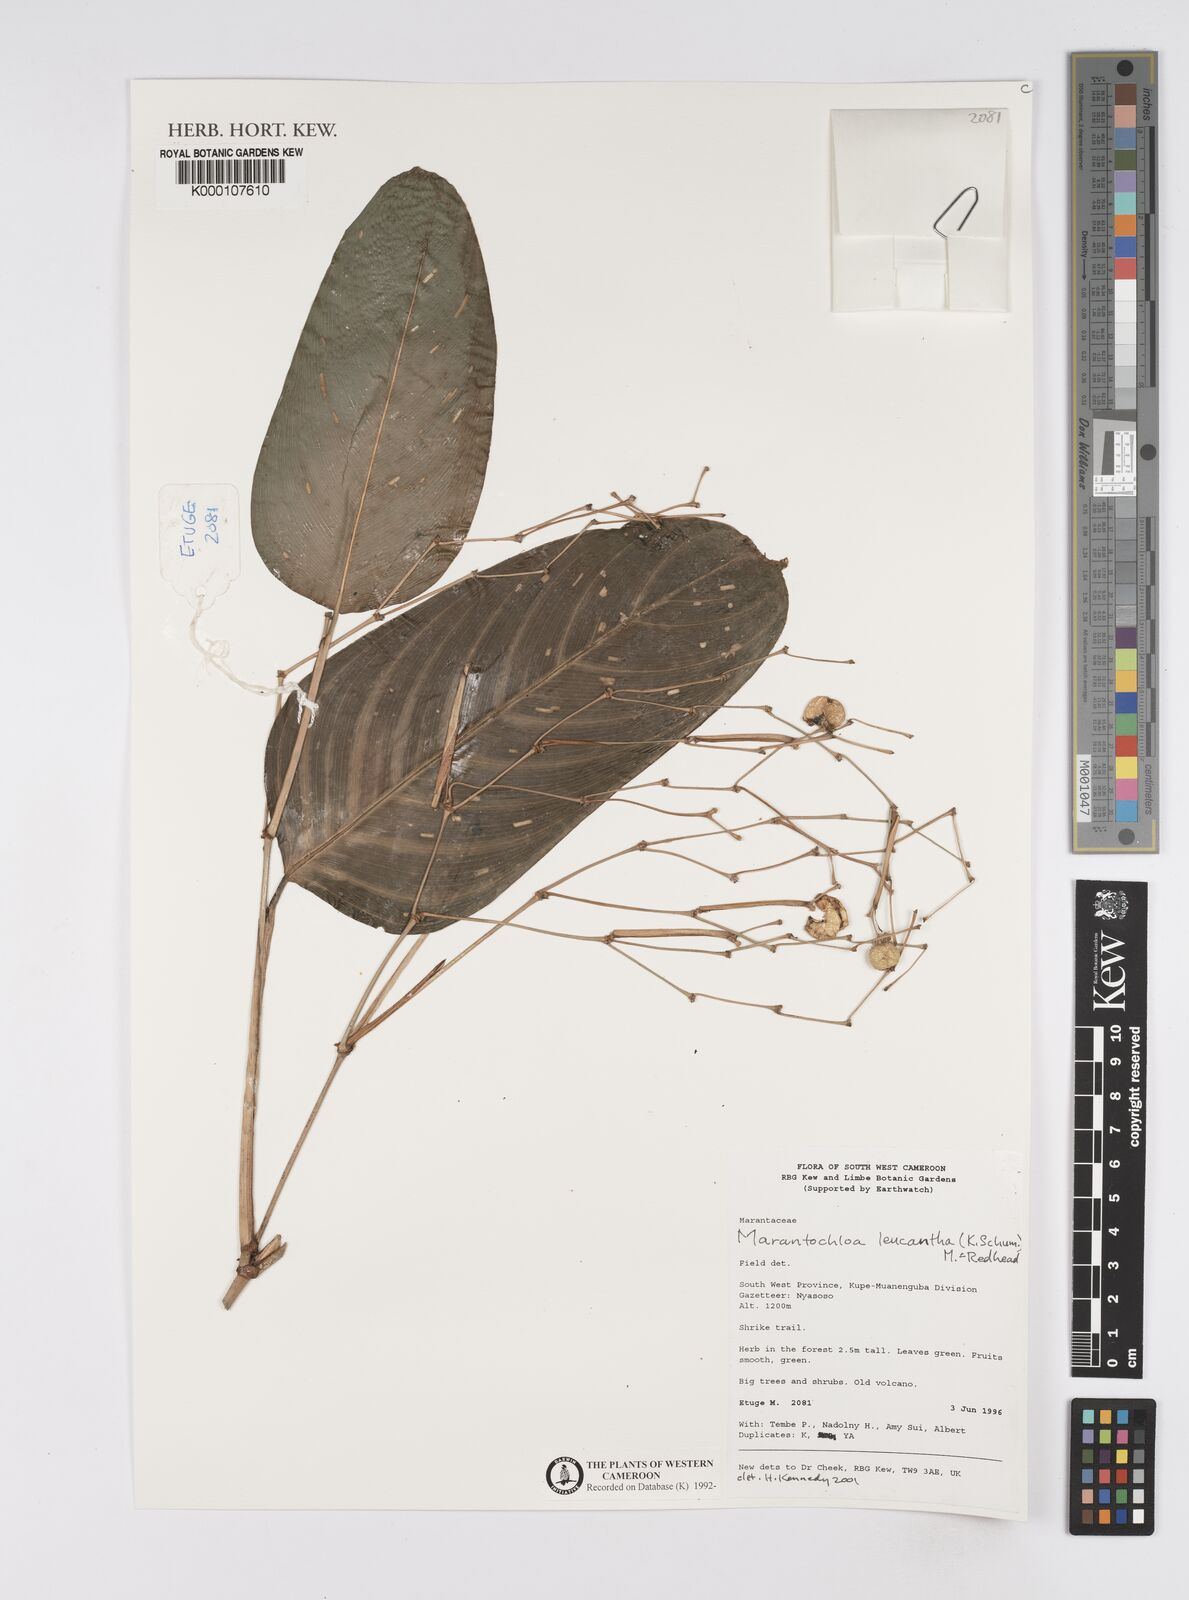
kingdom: Plantae
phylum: Tracheophyta
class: Liliopsida
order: Zingiberales
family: Marantaceae
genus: Marantochloa
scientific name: Marantochloa leucantha
